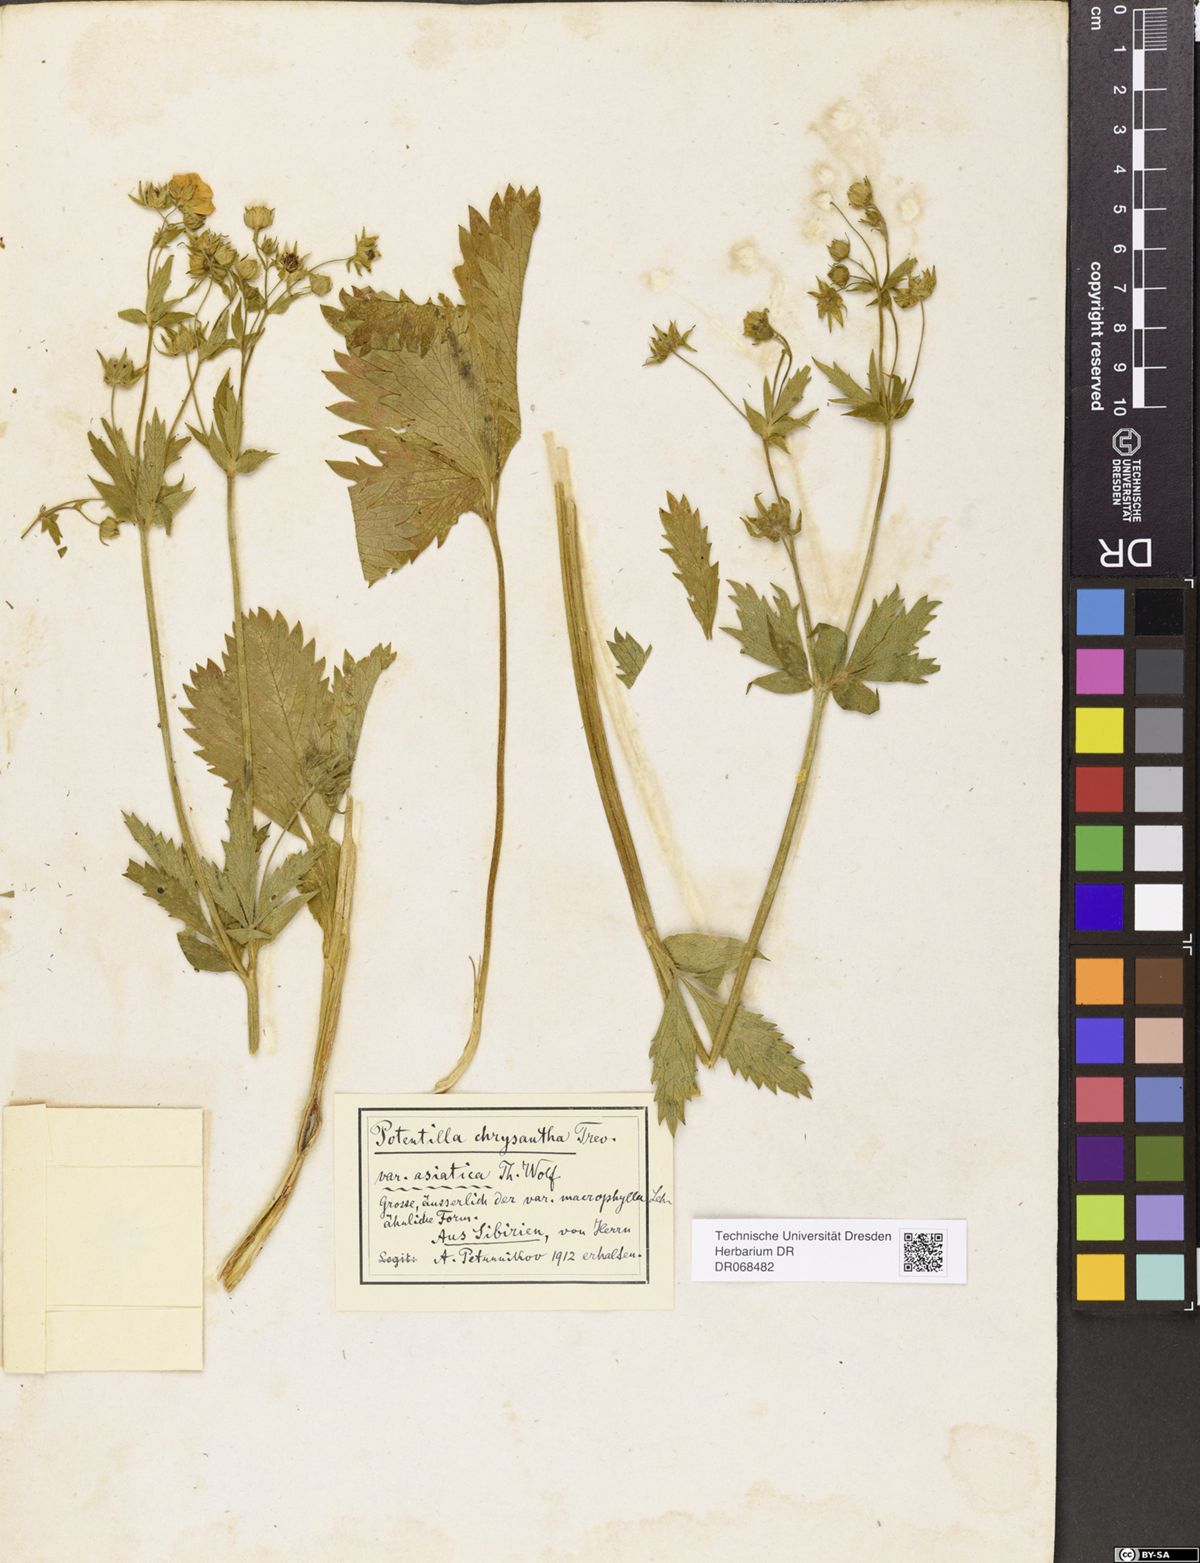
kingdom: Plantae
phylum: Tracheophyta
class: Magnoliopsida
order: Rosales
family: Rosaceae
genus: Potentilla
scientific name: Potentilla asiatica
